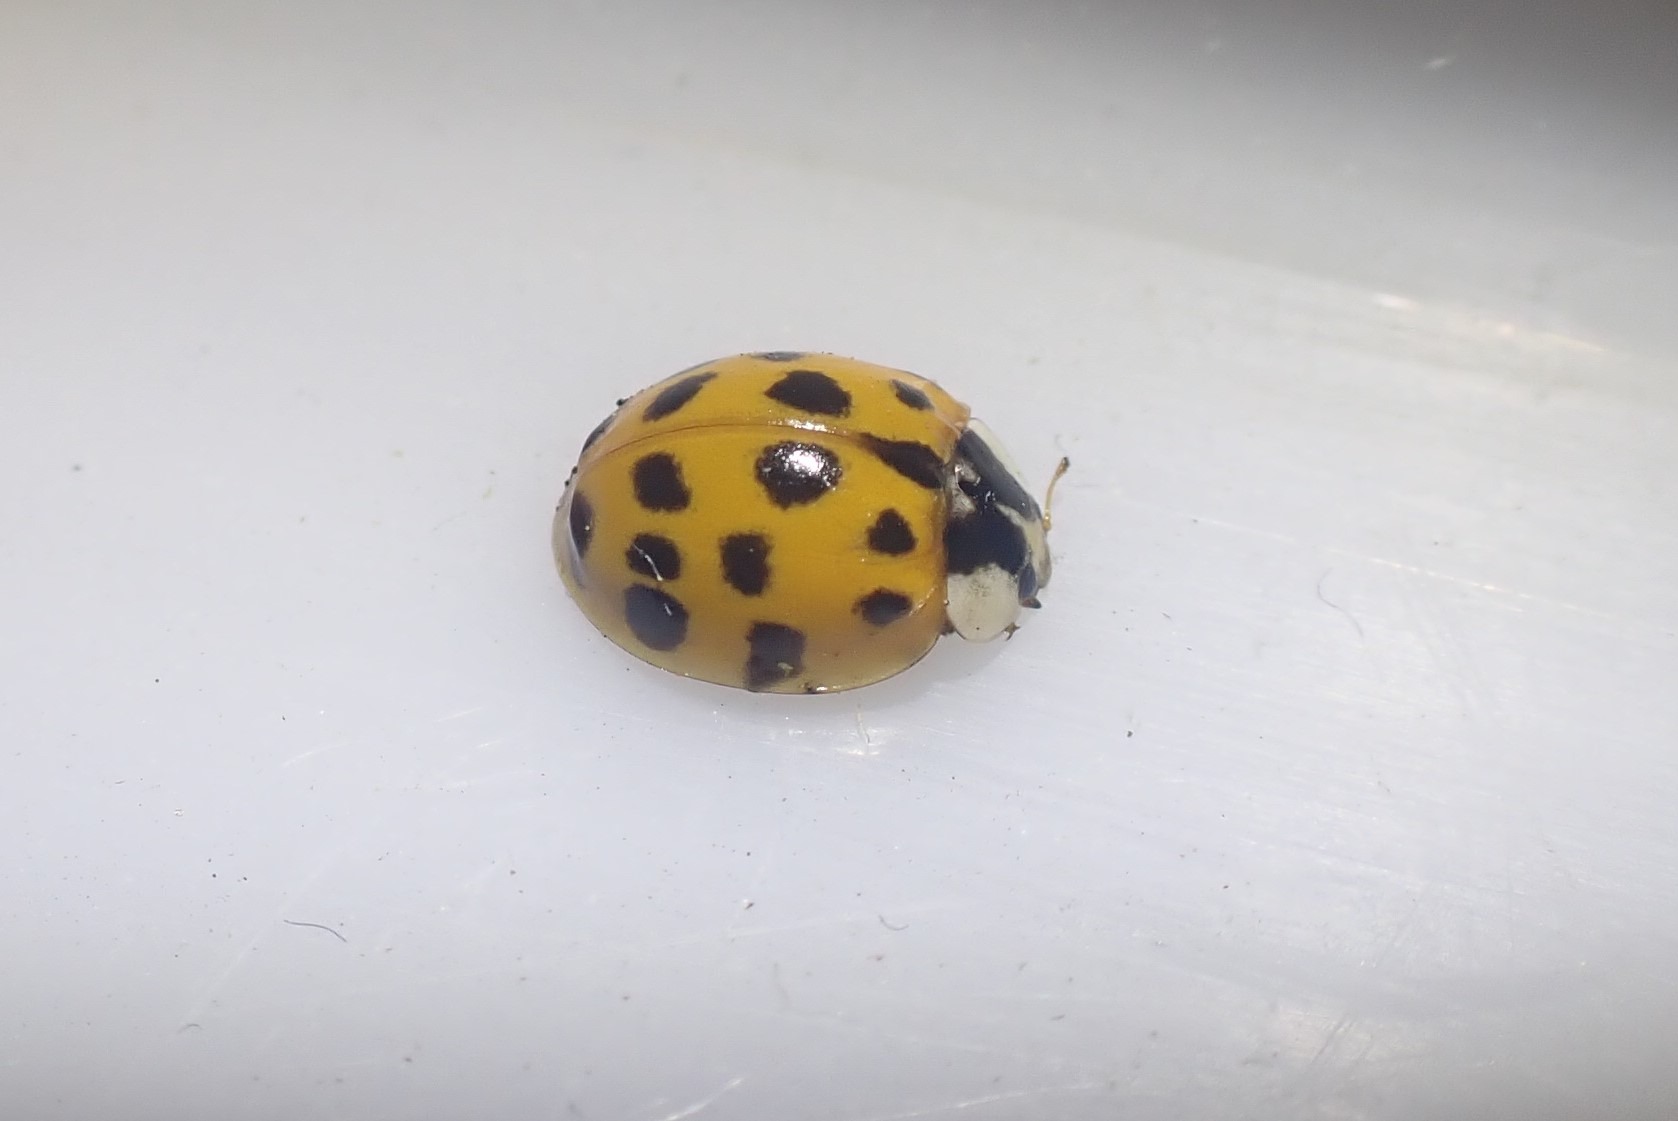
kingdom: Animalia
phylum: Arthropoda
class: Insecta
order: Coleoptera
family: Coccinellidae
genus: Harmonia
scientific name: Harmonia axyridis
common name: Harlekinmariehøne
